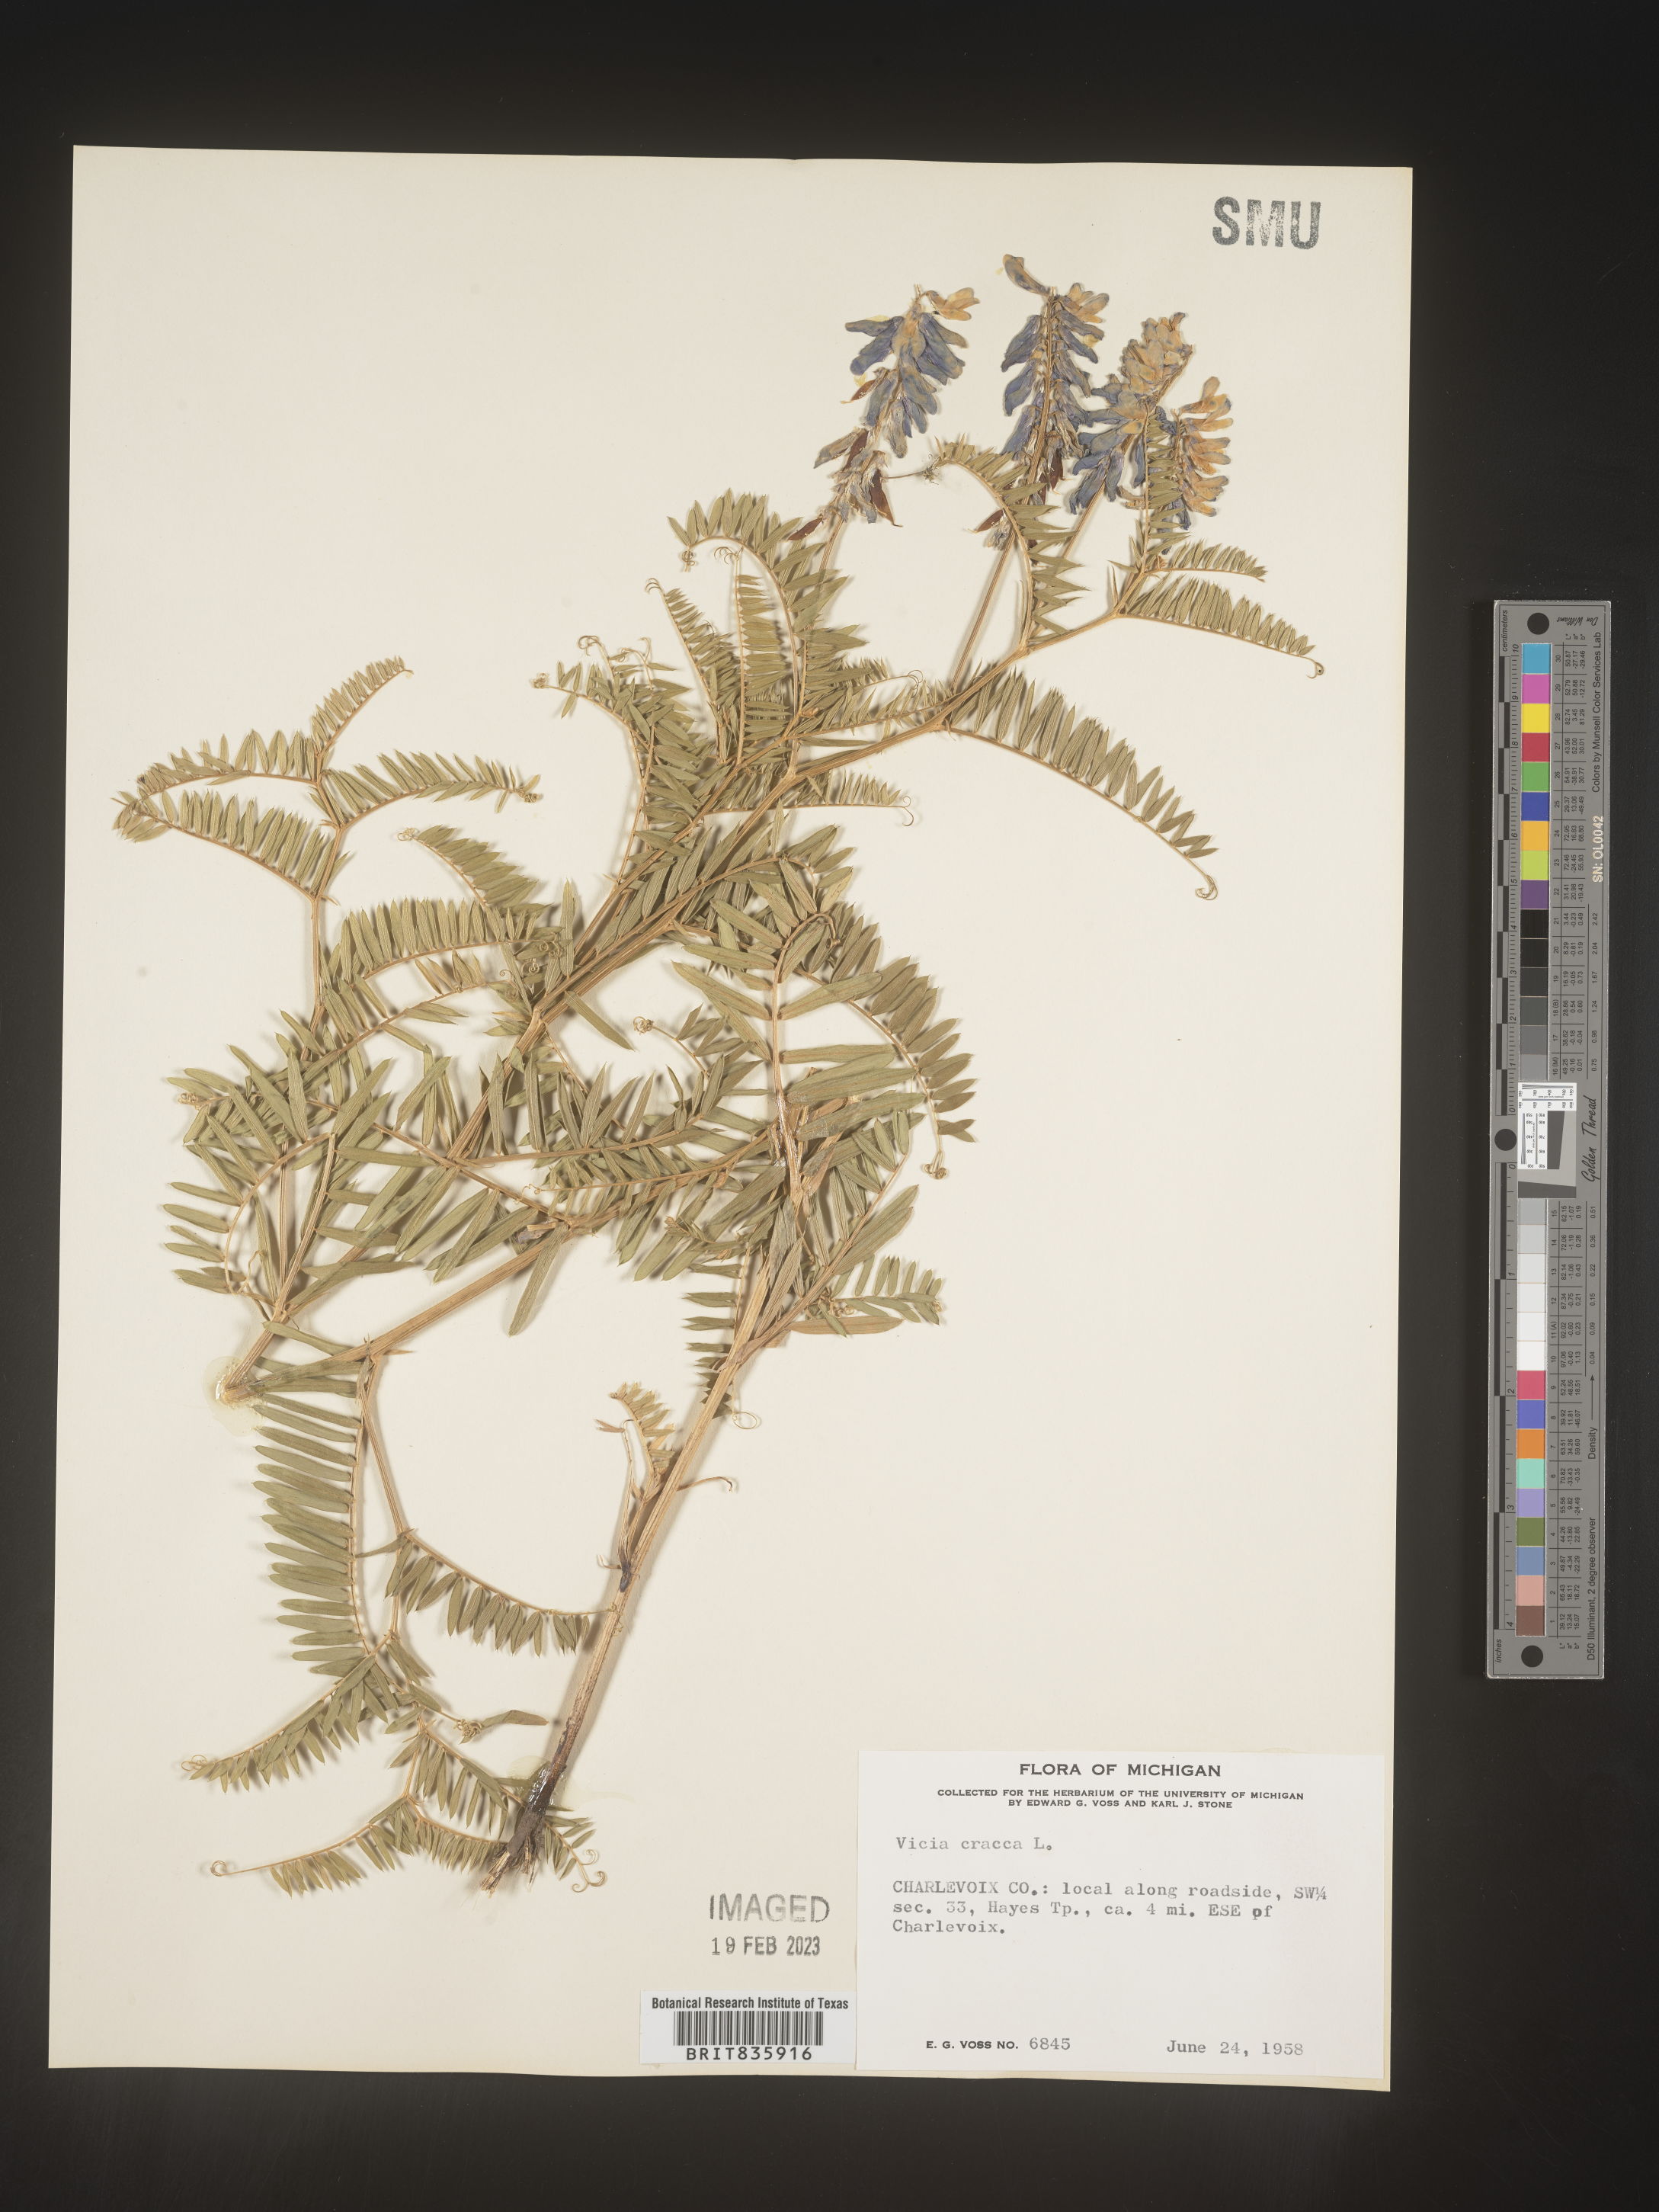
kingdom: Plantae
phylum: Tracheophyta
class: Magnoliopsida
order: Fabales
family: Fabaceae
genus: Vicia
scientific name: Vicia cracca
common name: Bird vetch
